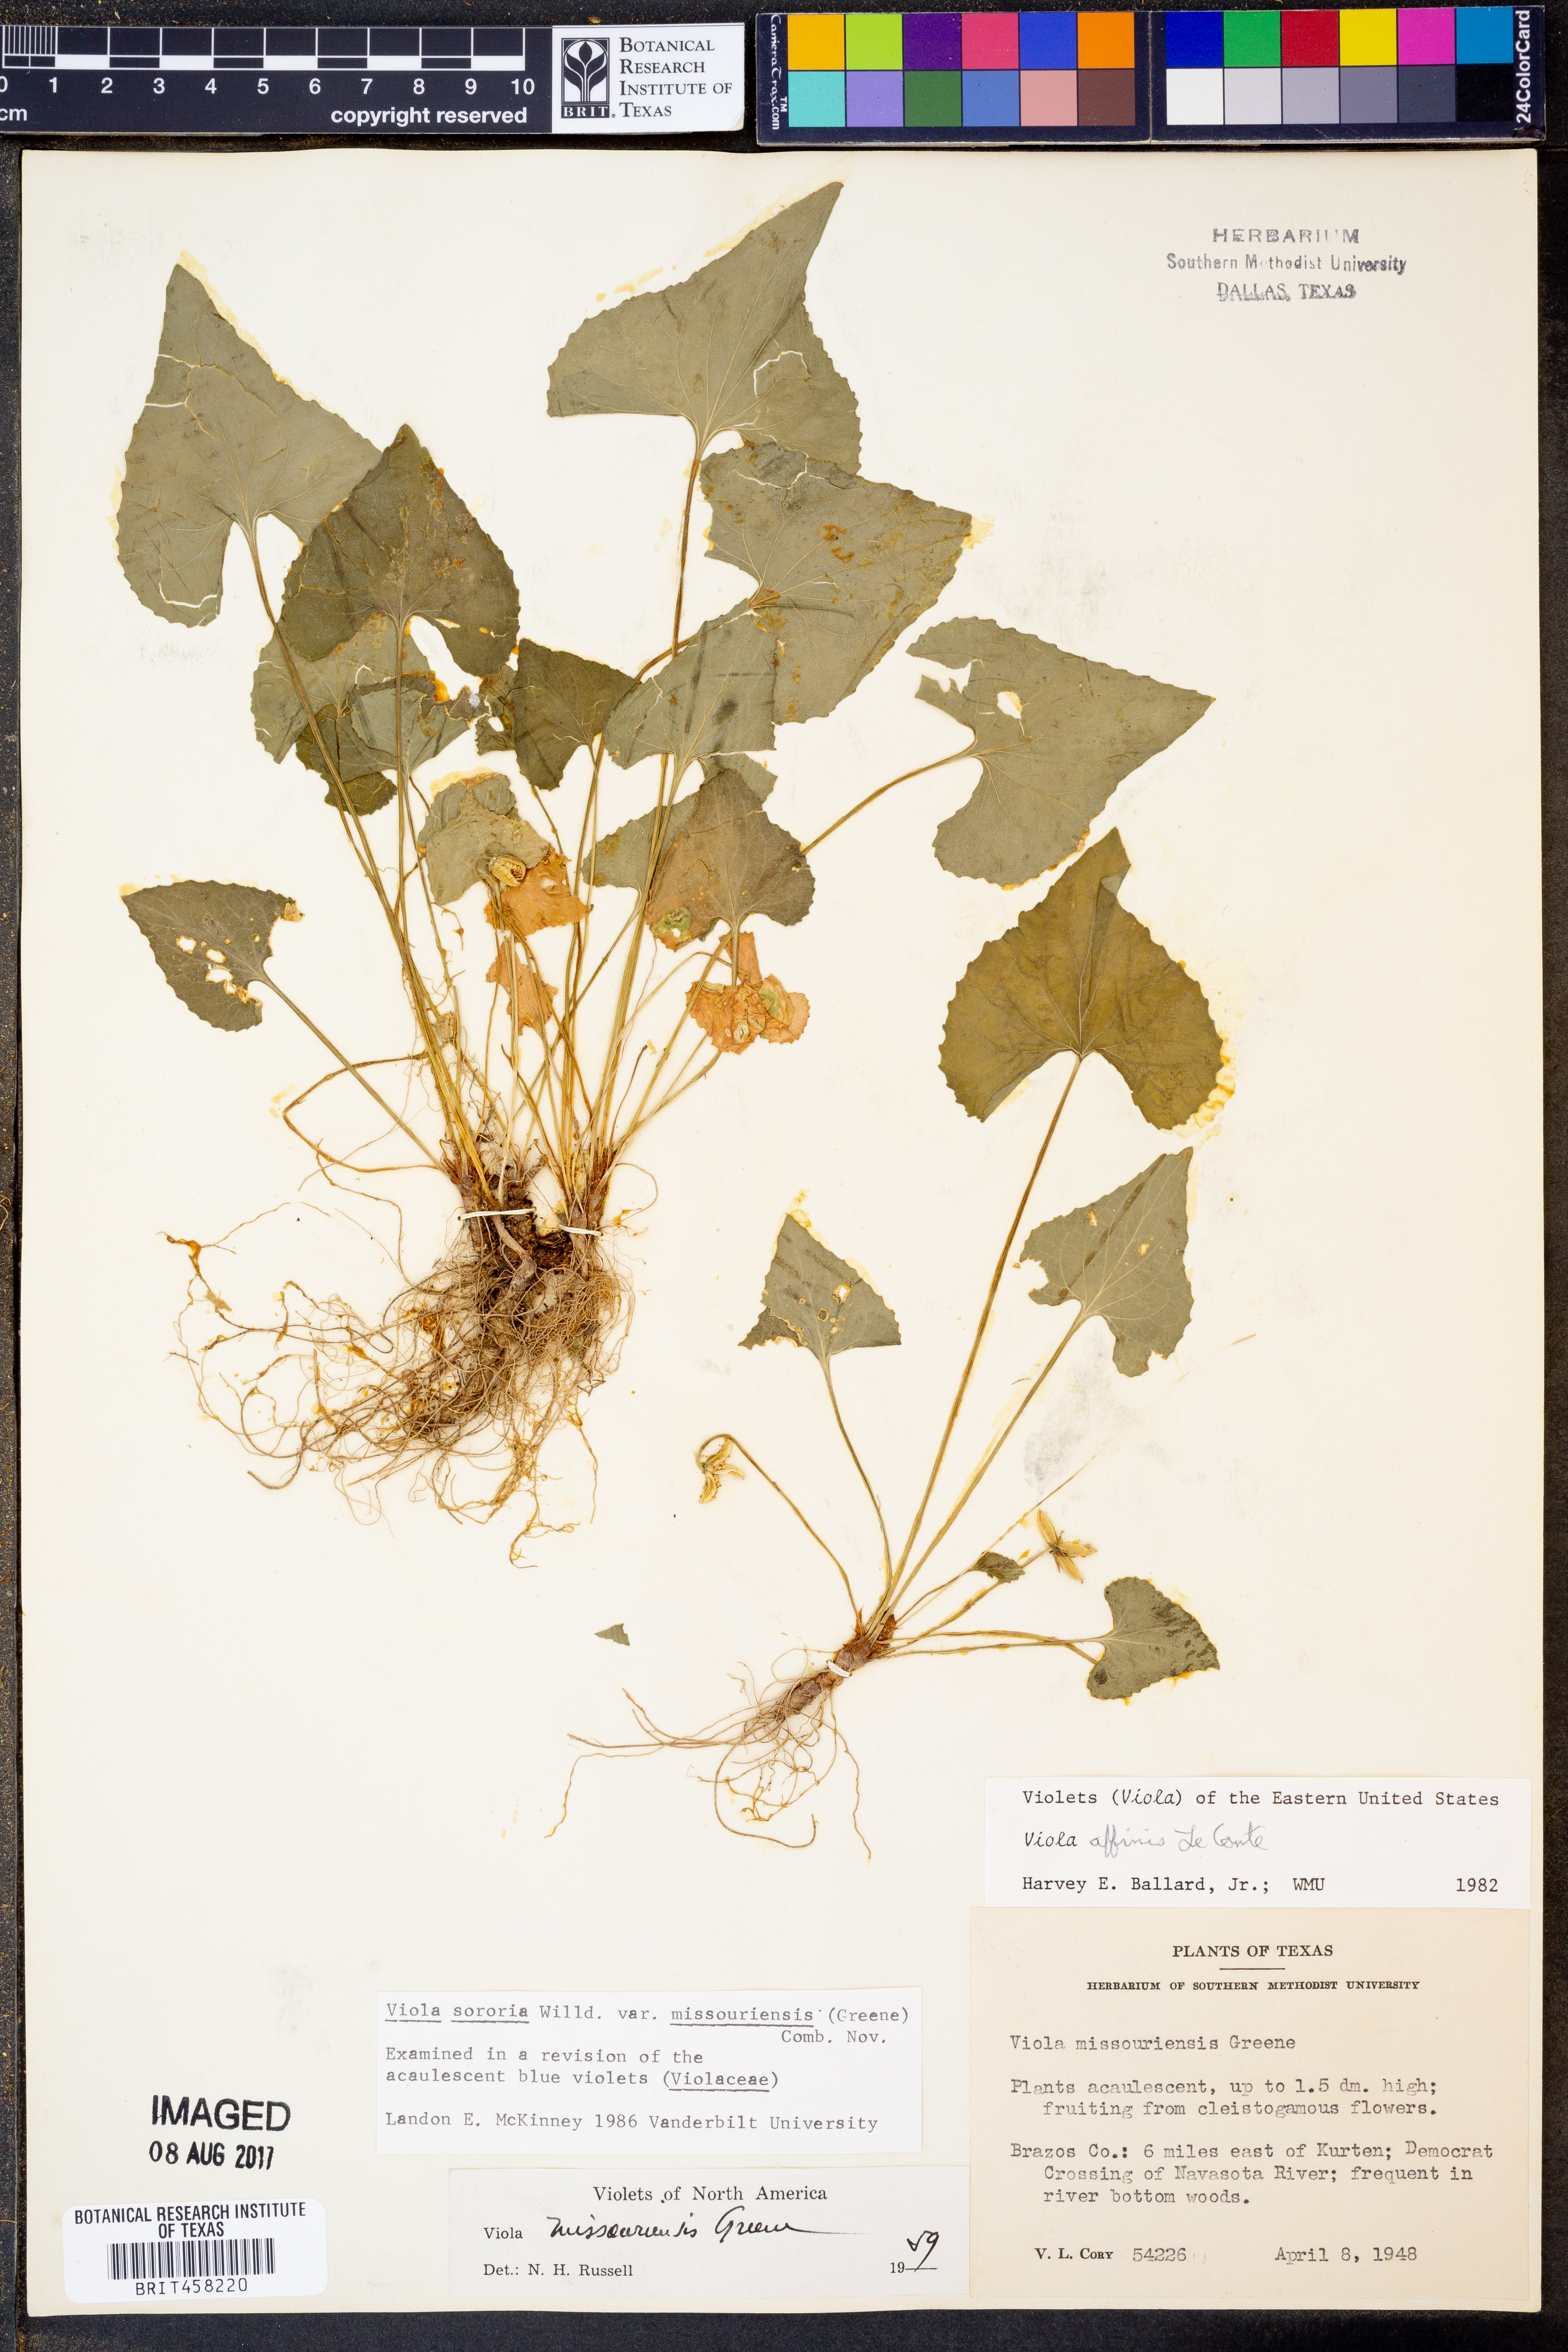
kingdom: Plantae
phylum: Tracheophyta
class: Magnoliopsida
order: Malpighiales
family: Violaceae
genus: Viola
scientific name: Viola missouriensis
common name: Missouri violet
